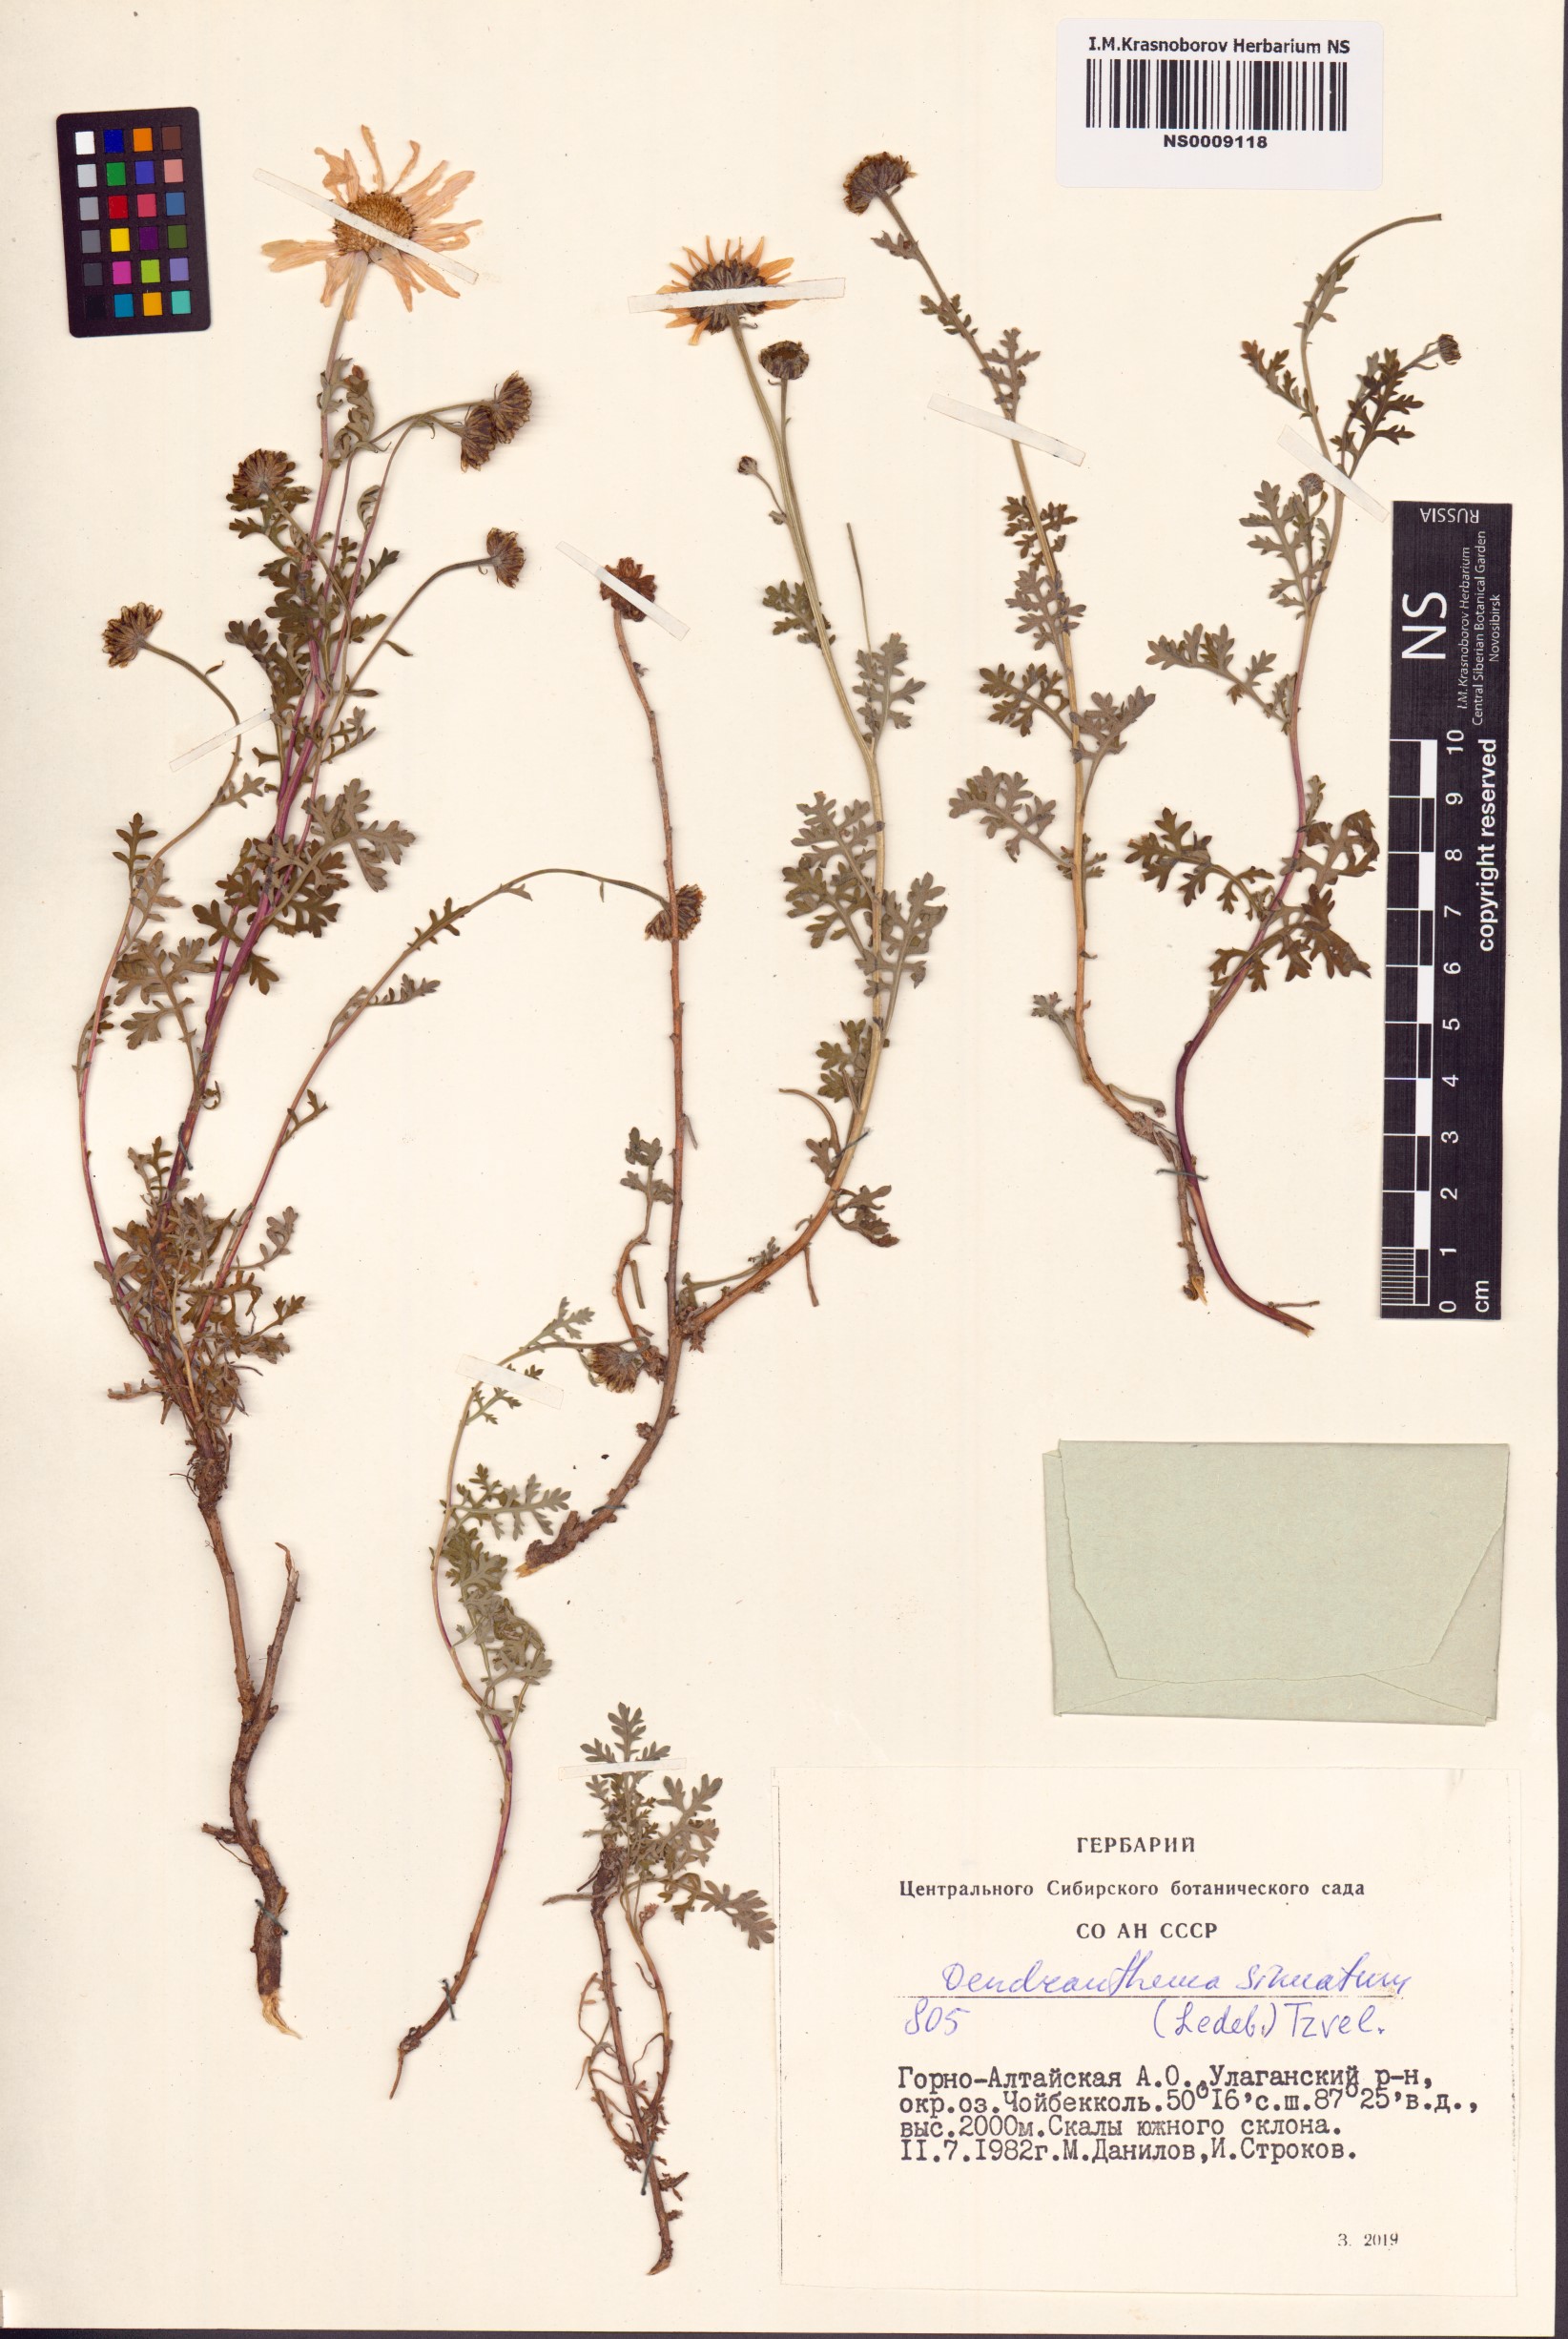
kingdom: Plantae
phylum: Tracheophyta
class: Magnoliopsida
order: Asterales
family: Asteraceae
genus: Chrysanthemum
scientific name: Chrysanthemum sinuatum
